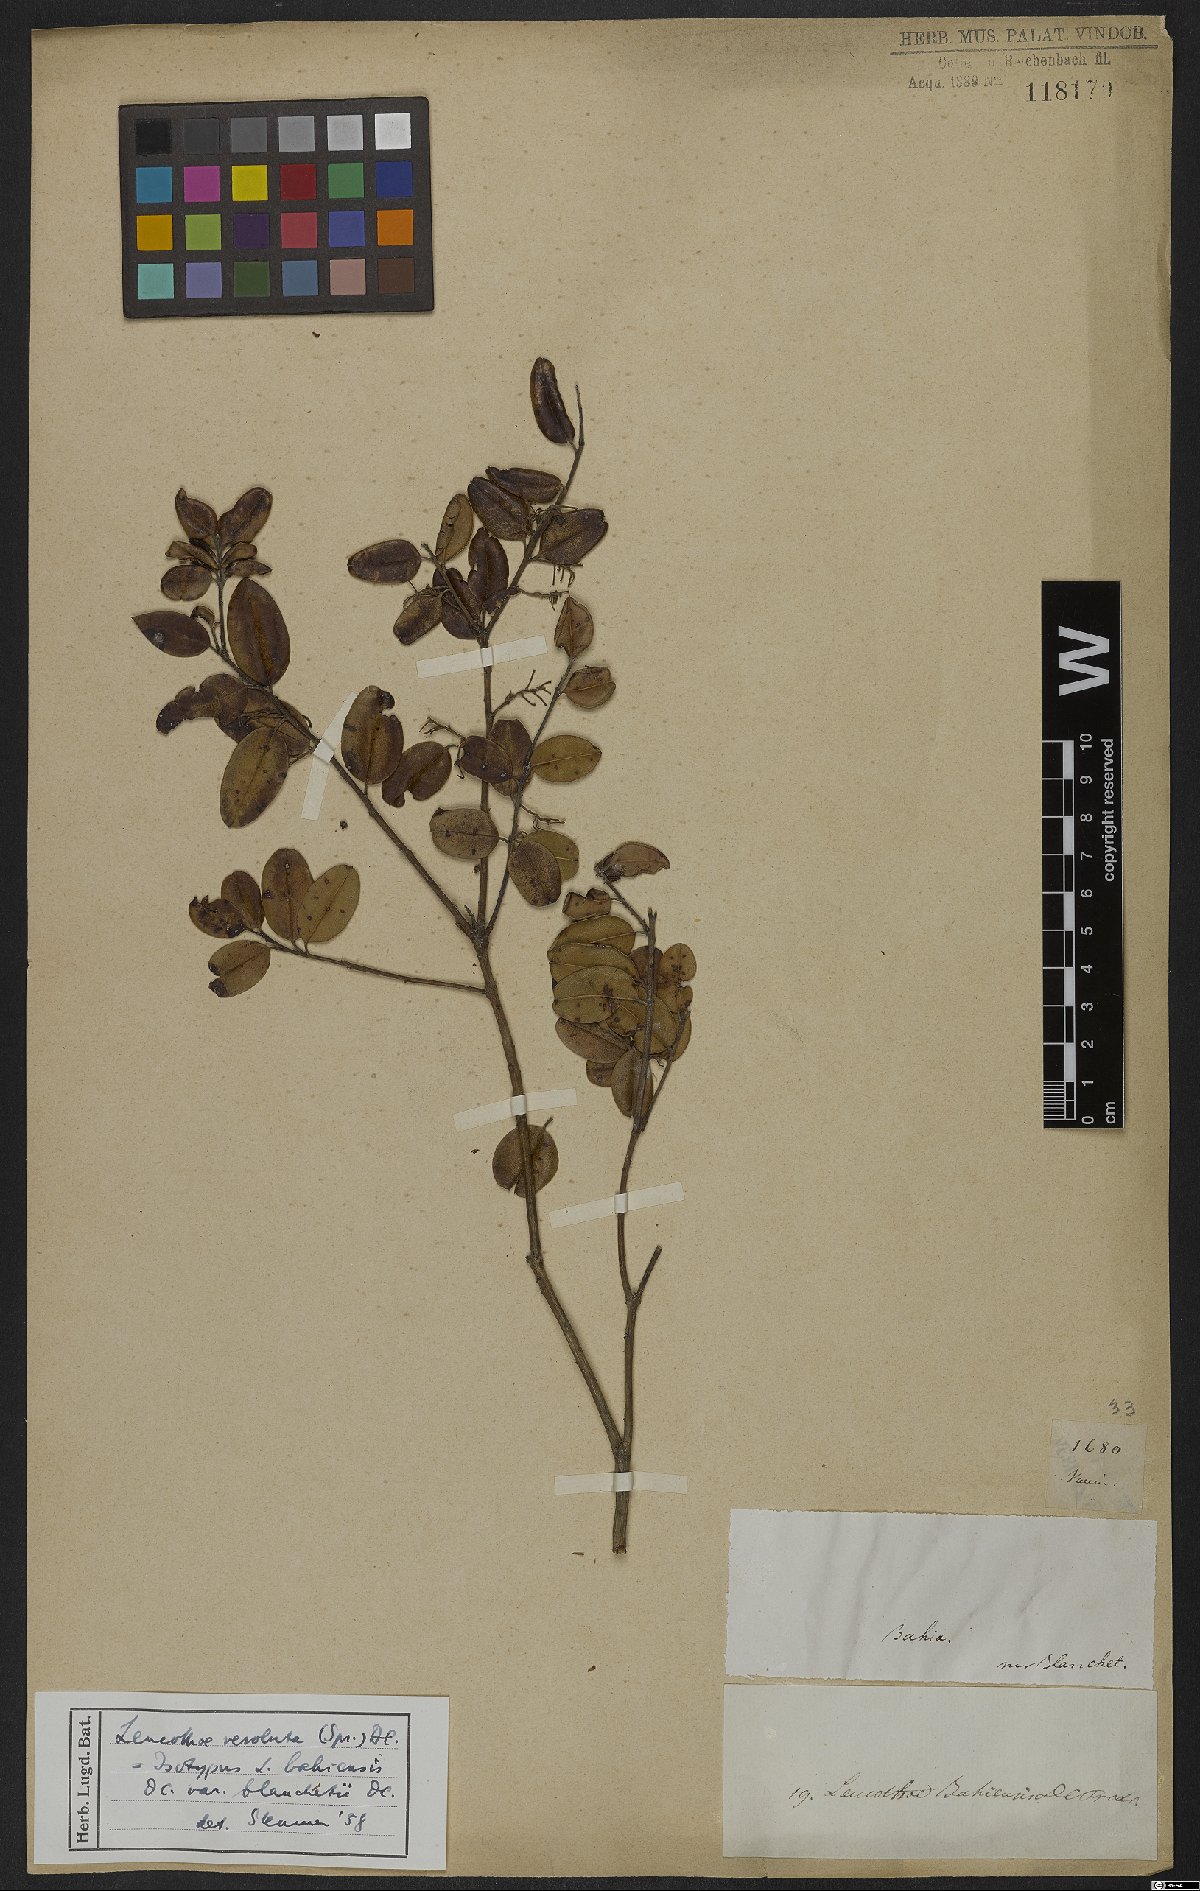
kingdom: Plantae
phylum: Tracheophyta
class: Magnoliopsida
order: Ericales
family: Ericaceae
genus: Agarista
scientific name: Agarista revoluta
